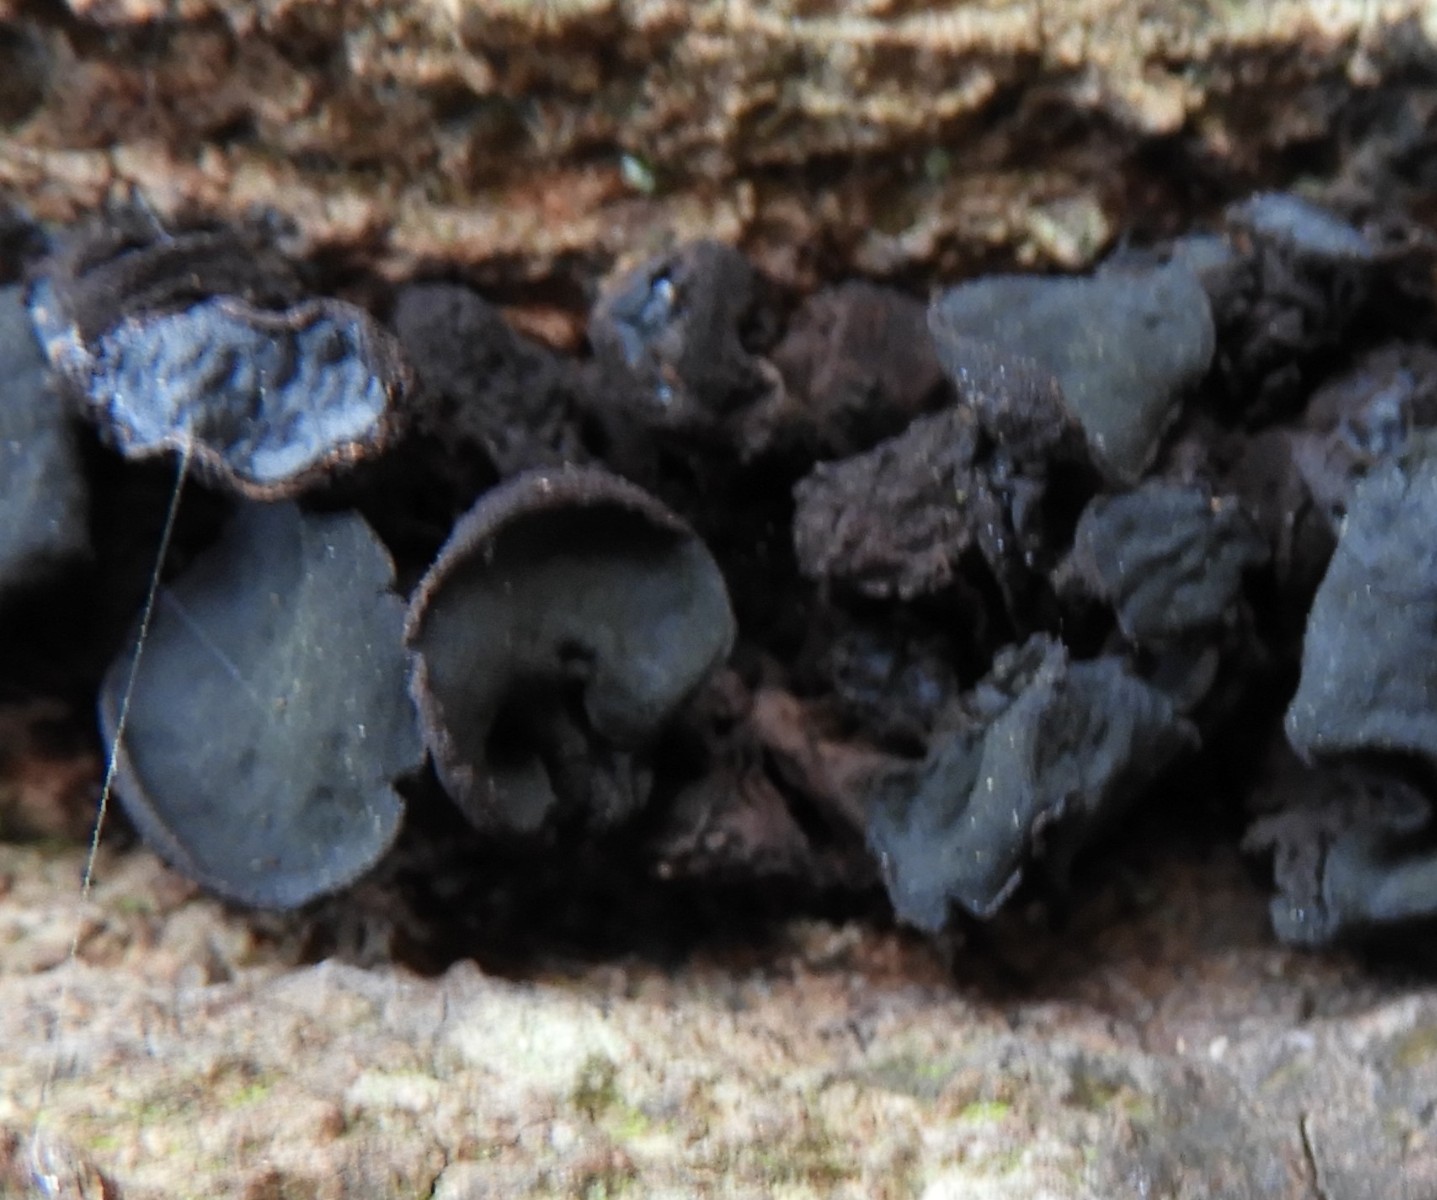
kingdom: Fungi
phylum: Ascomycota
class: Leotiomycetes
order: Phacidiales
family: Phacidiaceae
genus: Bulgaria
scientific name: Bulgaria inquinans
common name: afsmittende topsvamp
